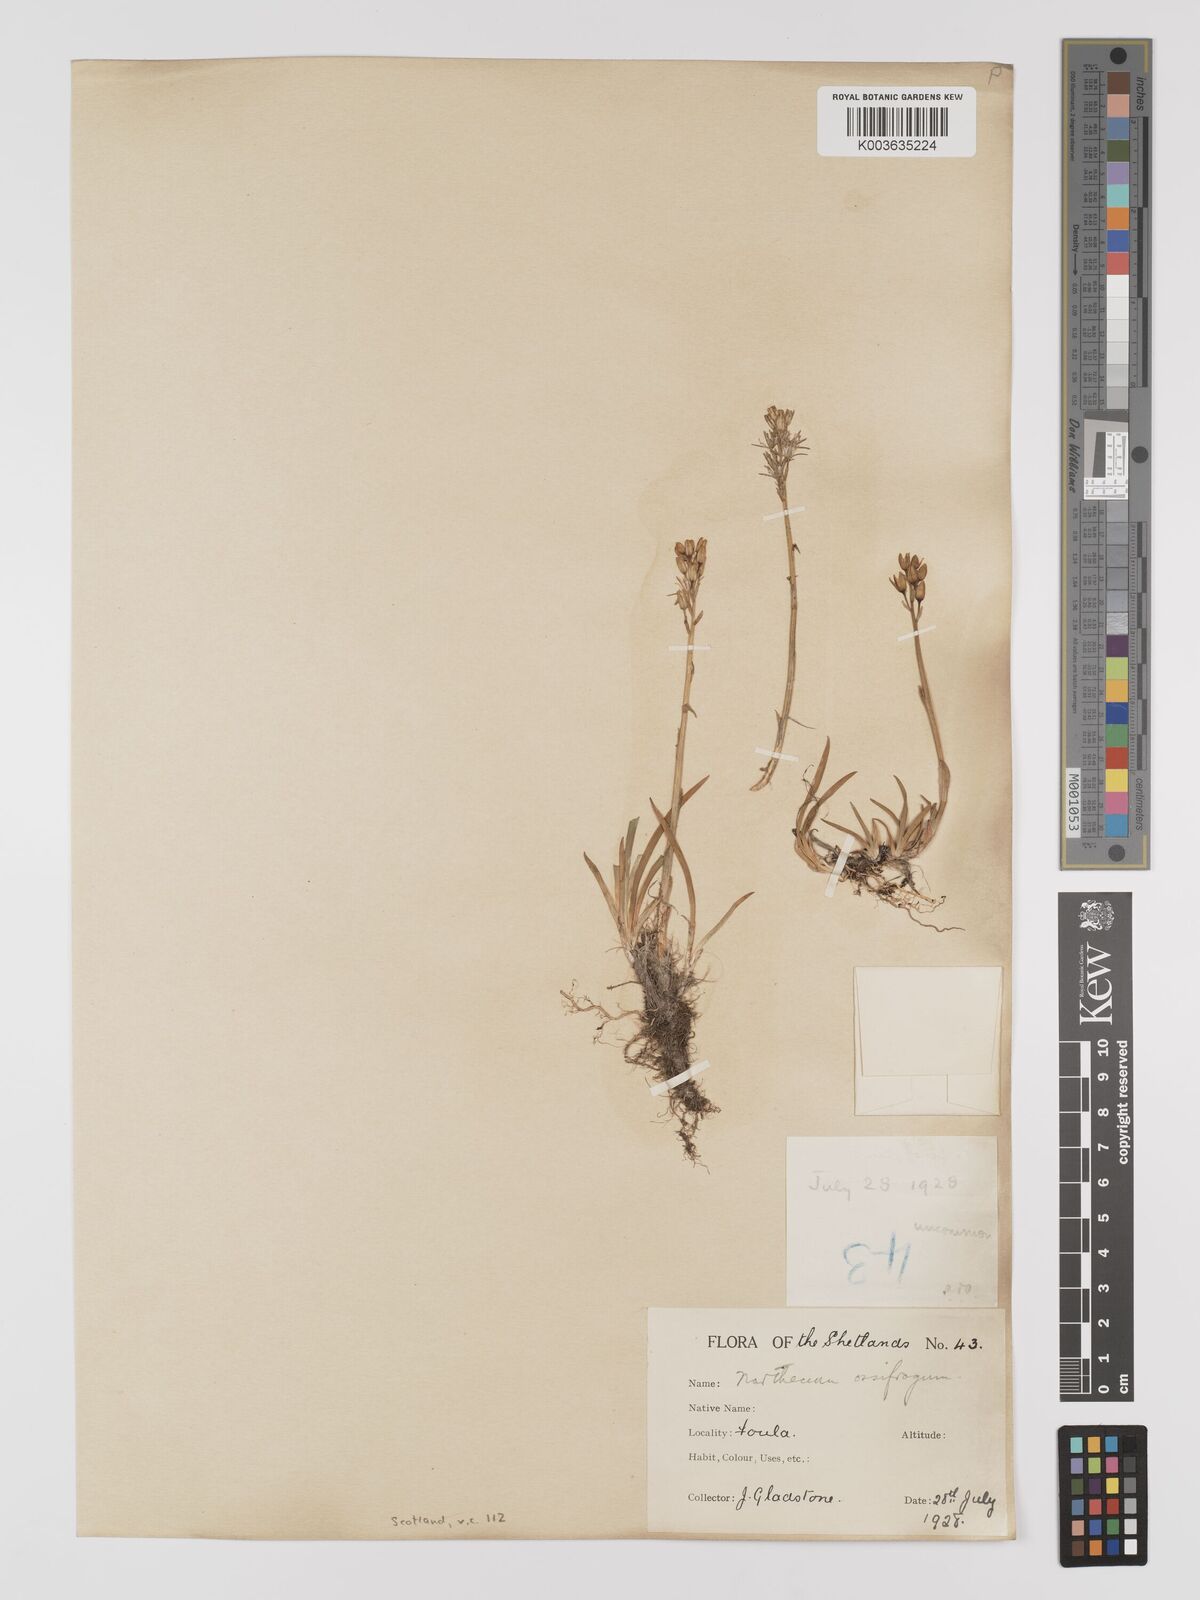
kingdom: Plantae
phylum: Tracheophyta
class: Liliopsida
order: Dioscoreales
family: Nartheciaceae
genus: Narthecium
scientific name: Narthecium
